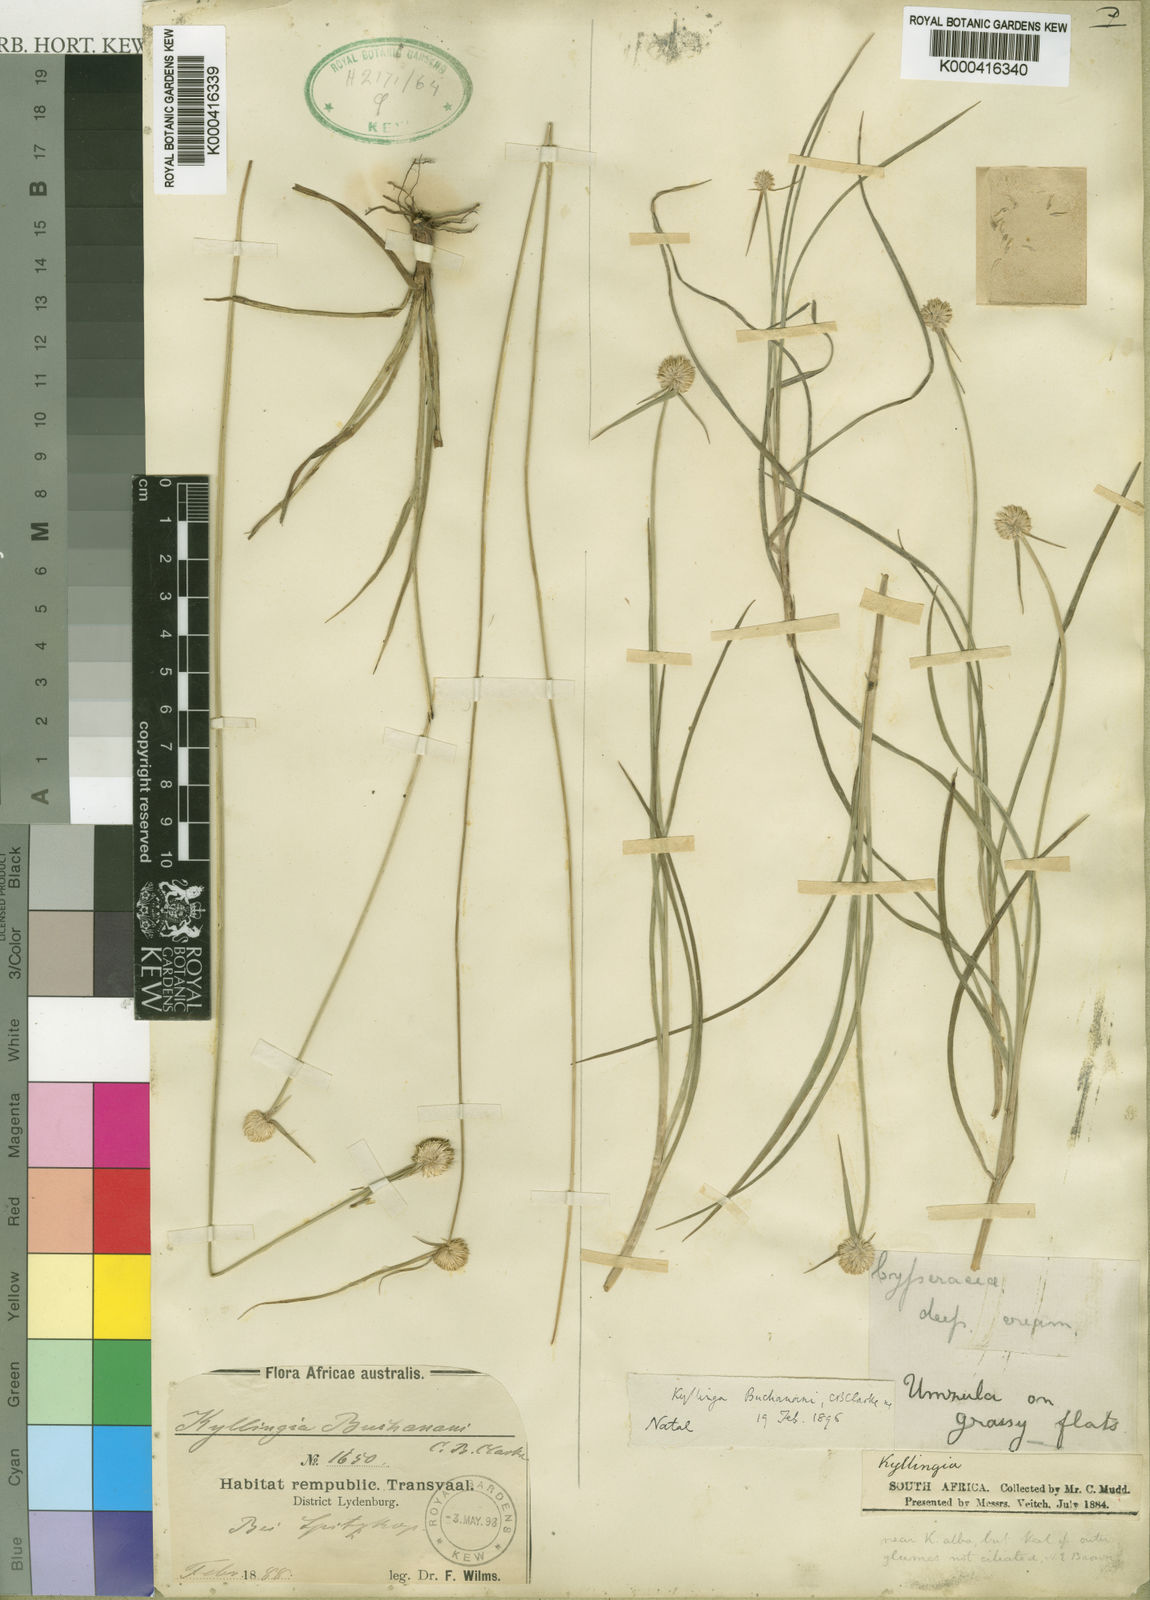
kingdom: Plantae
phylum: Tracheophyta
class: Liliopsida
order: Poales
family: Cyperaceae
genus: Cyperus
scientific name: Cyperus sublaevicarinatus
